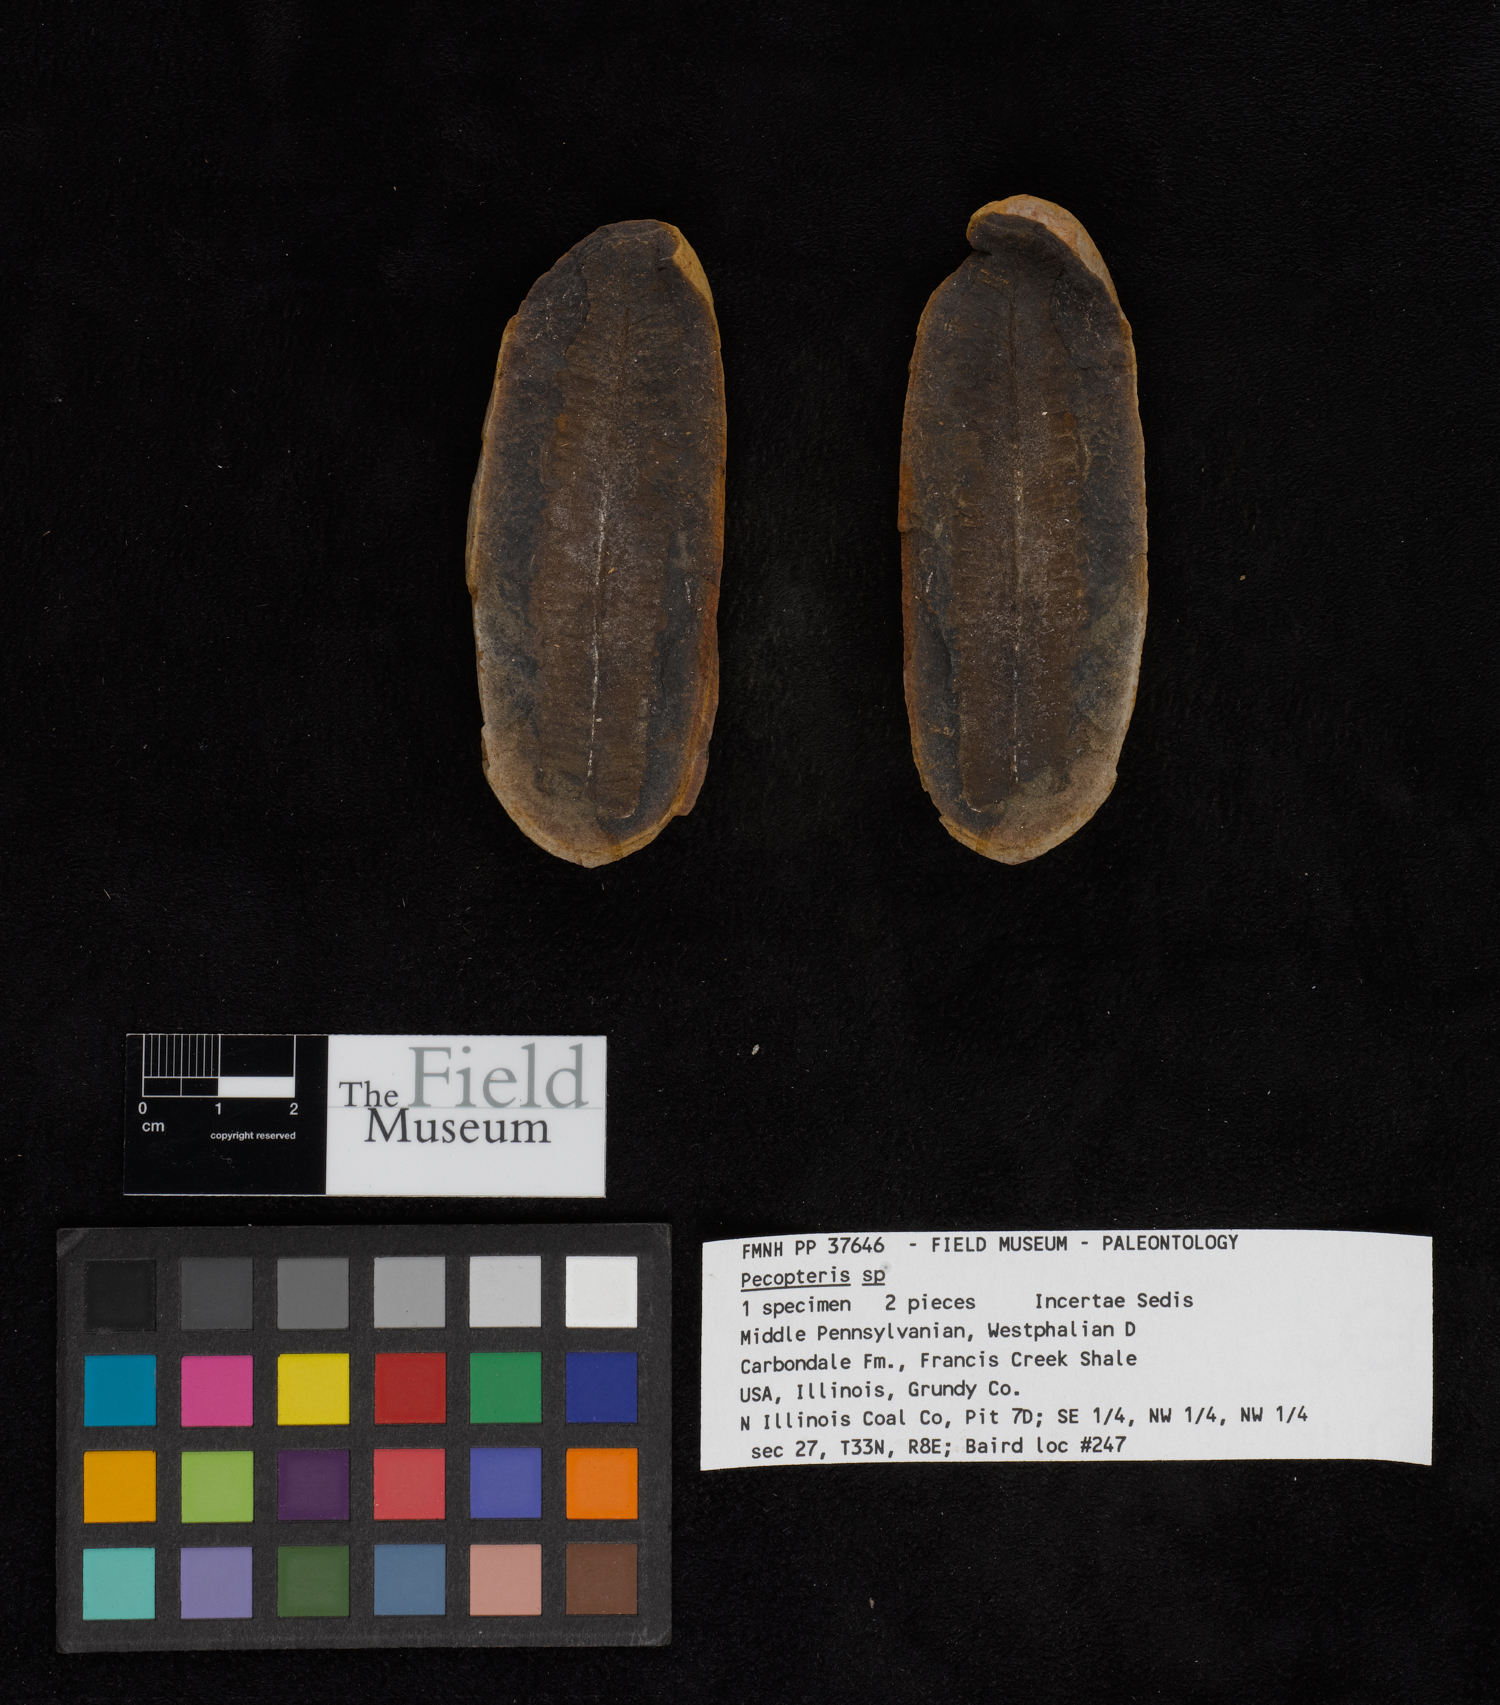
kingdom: Plantae
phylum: Tracheophyta
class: Polypodiopsida
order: Marattiales
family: Asterothecaceae
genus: Pecopteris
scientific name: Pecopteris
